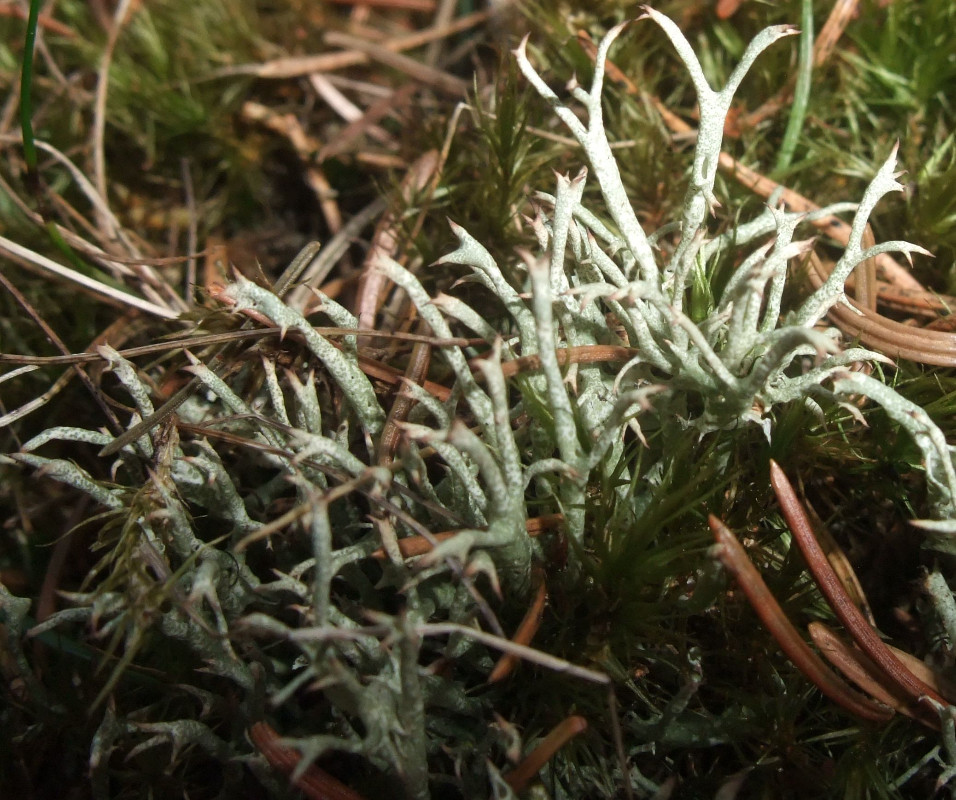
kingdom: Fungi
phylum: Ascomycota
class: Lecanoromycetes
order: Lecanorales
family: Cladoniaceae
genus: Cladonia
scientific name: Cladonia uncialis
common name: Thorn lichen
